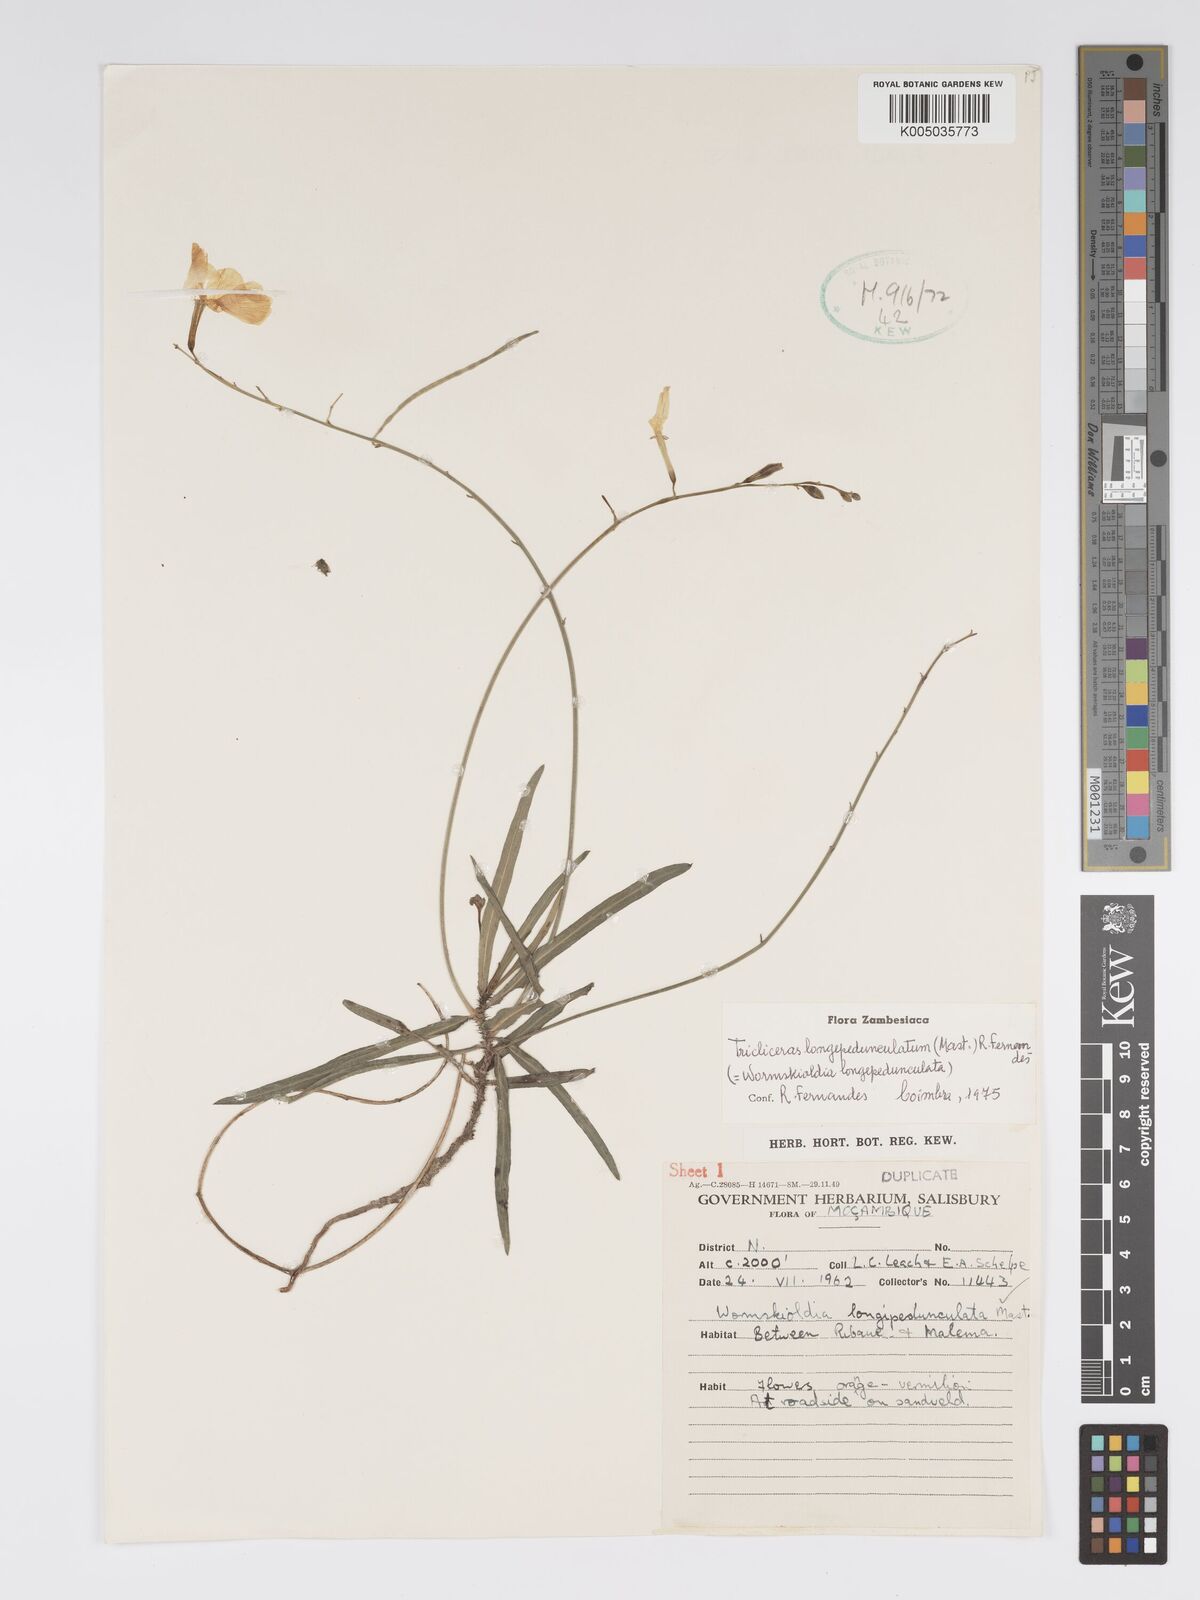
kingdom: Plantae
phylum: Tracheophyta
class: Magnoliopsida
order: Malpighiales
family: Turneraceae
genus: Tricliceras
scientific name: Tricliceras longepedunculatum
